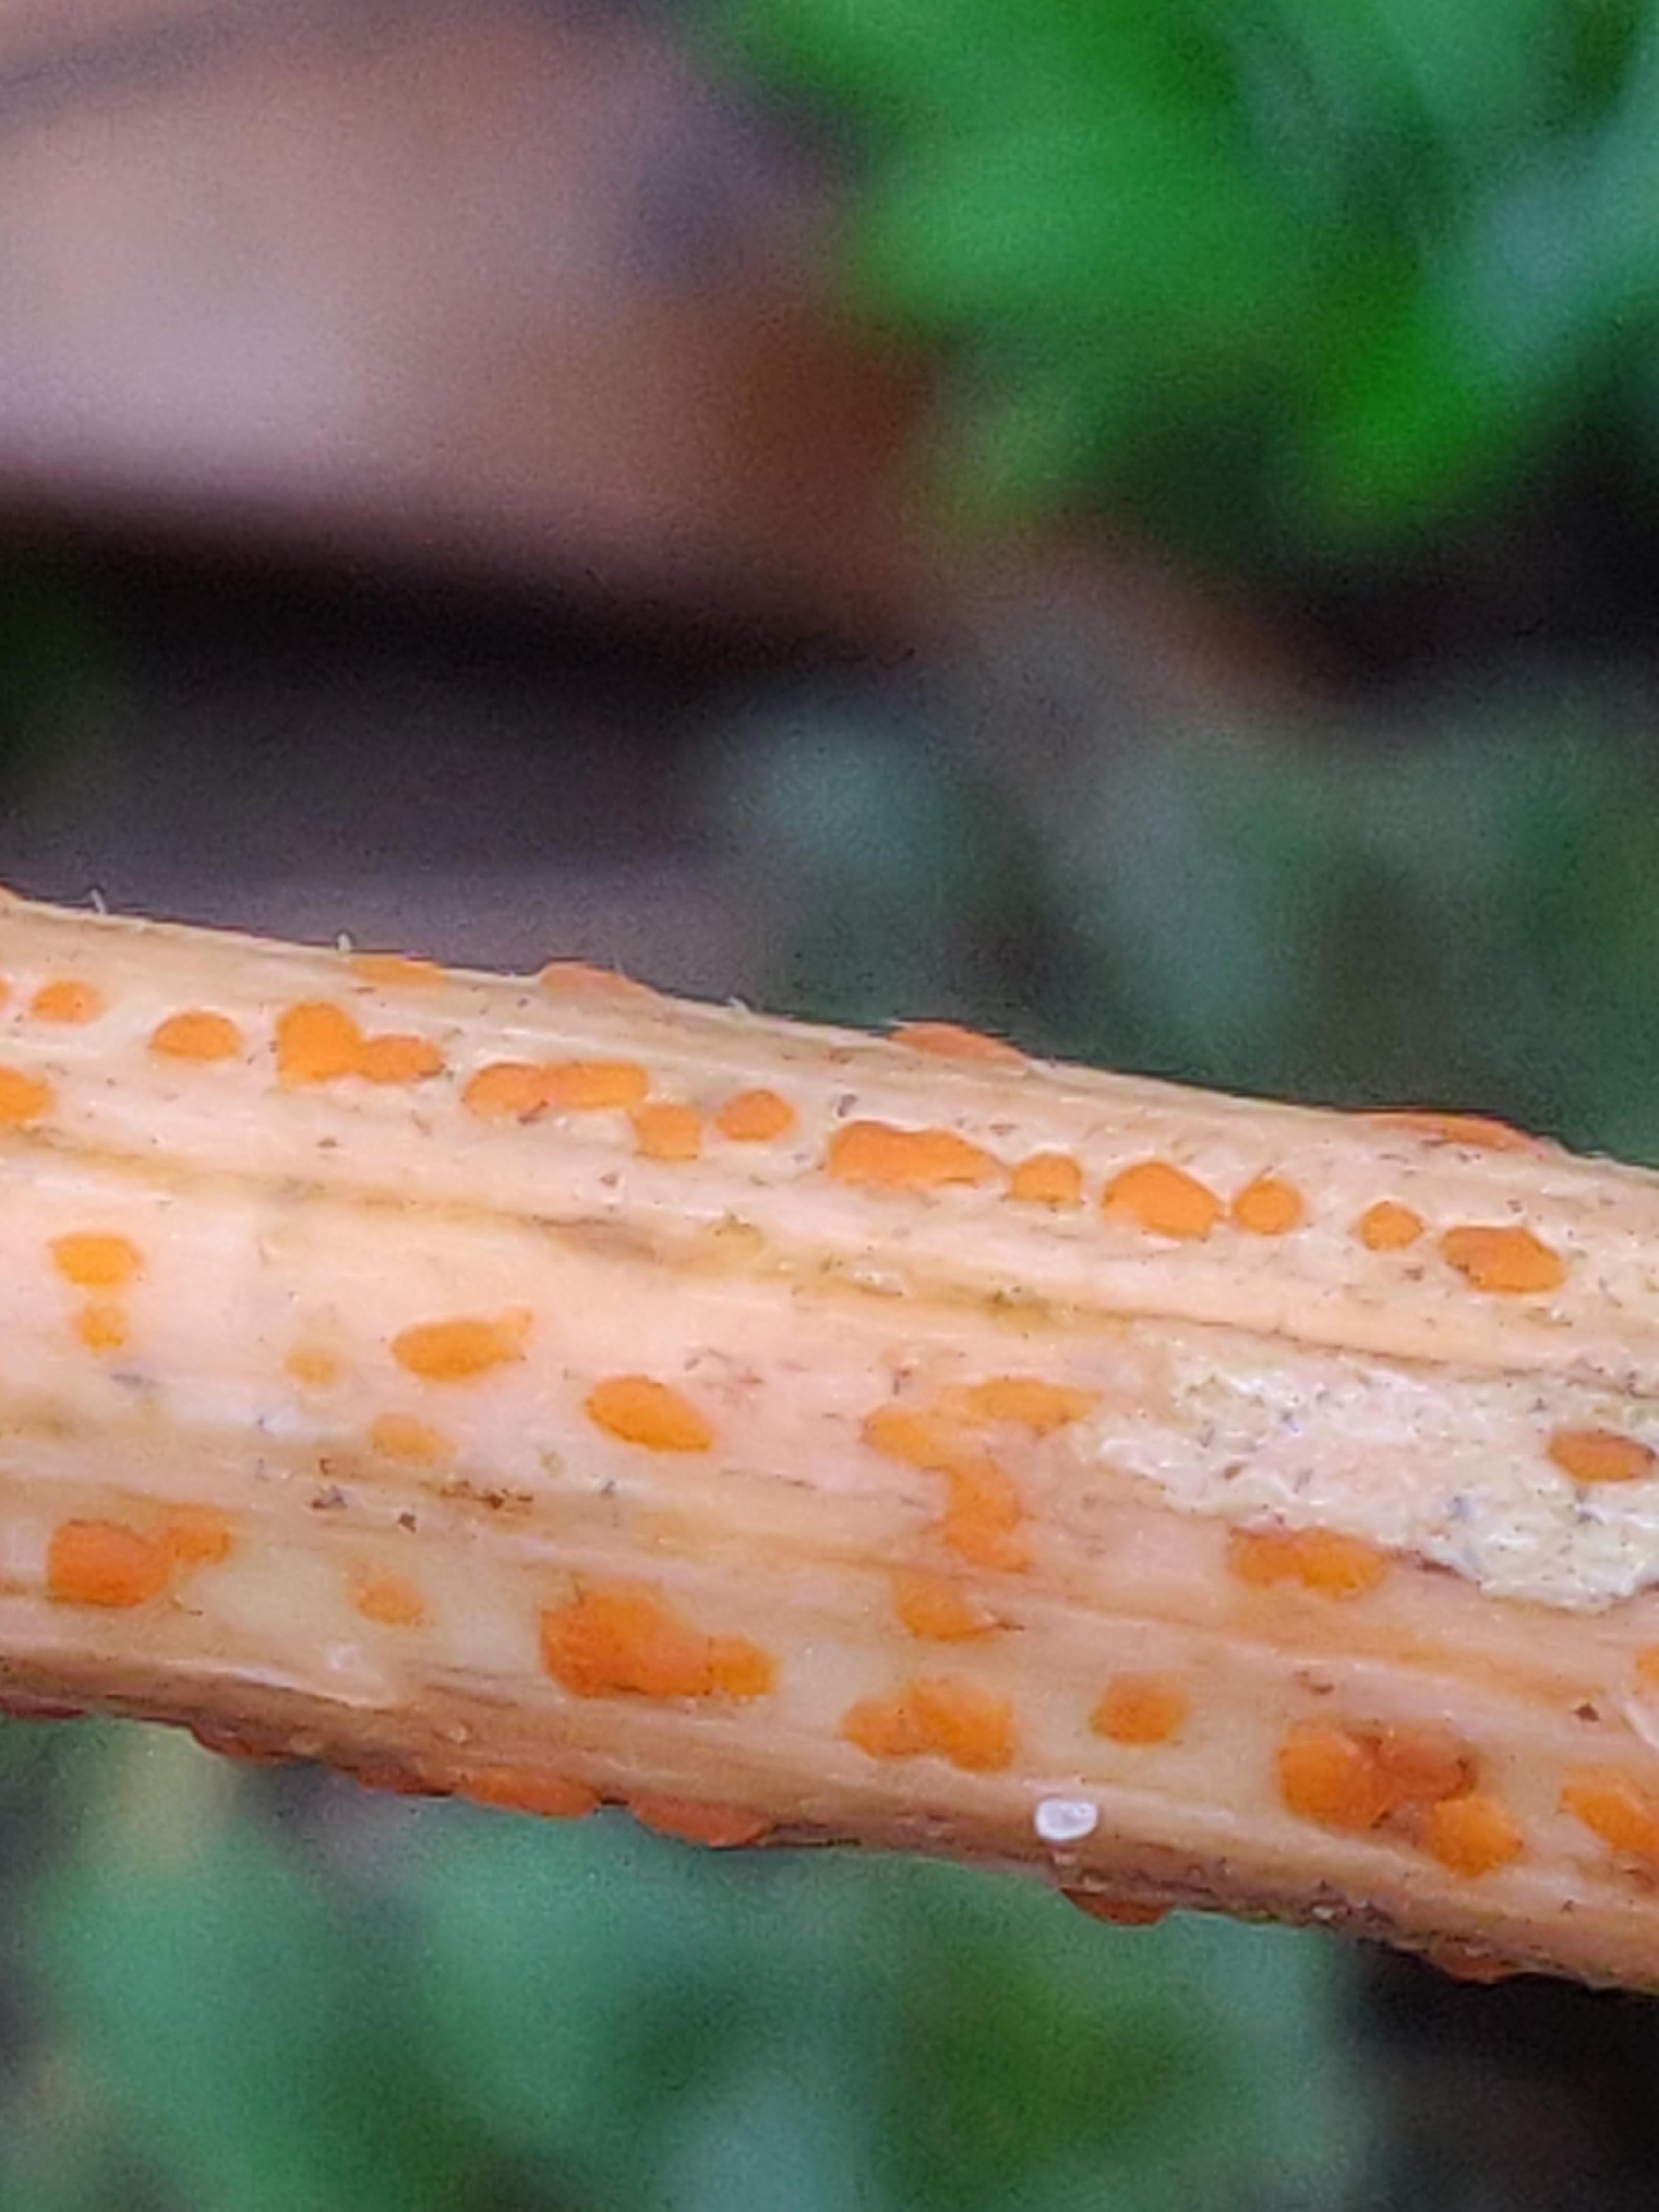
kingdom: Fungi
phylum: Ascomycota
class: Leotiomycetes
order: Helotiales
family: Calloriaceae
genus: Calloria
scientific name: Calloria urticae
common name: nælde-orangeskive
